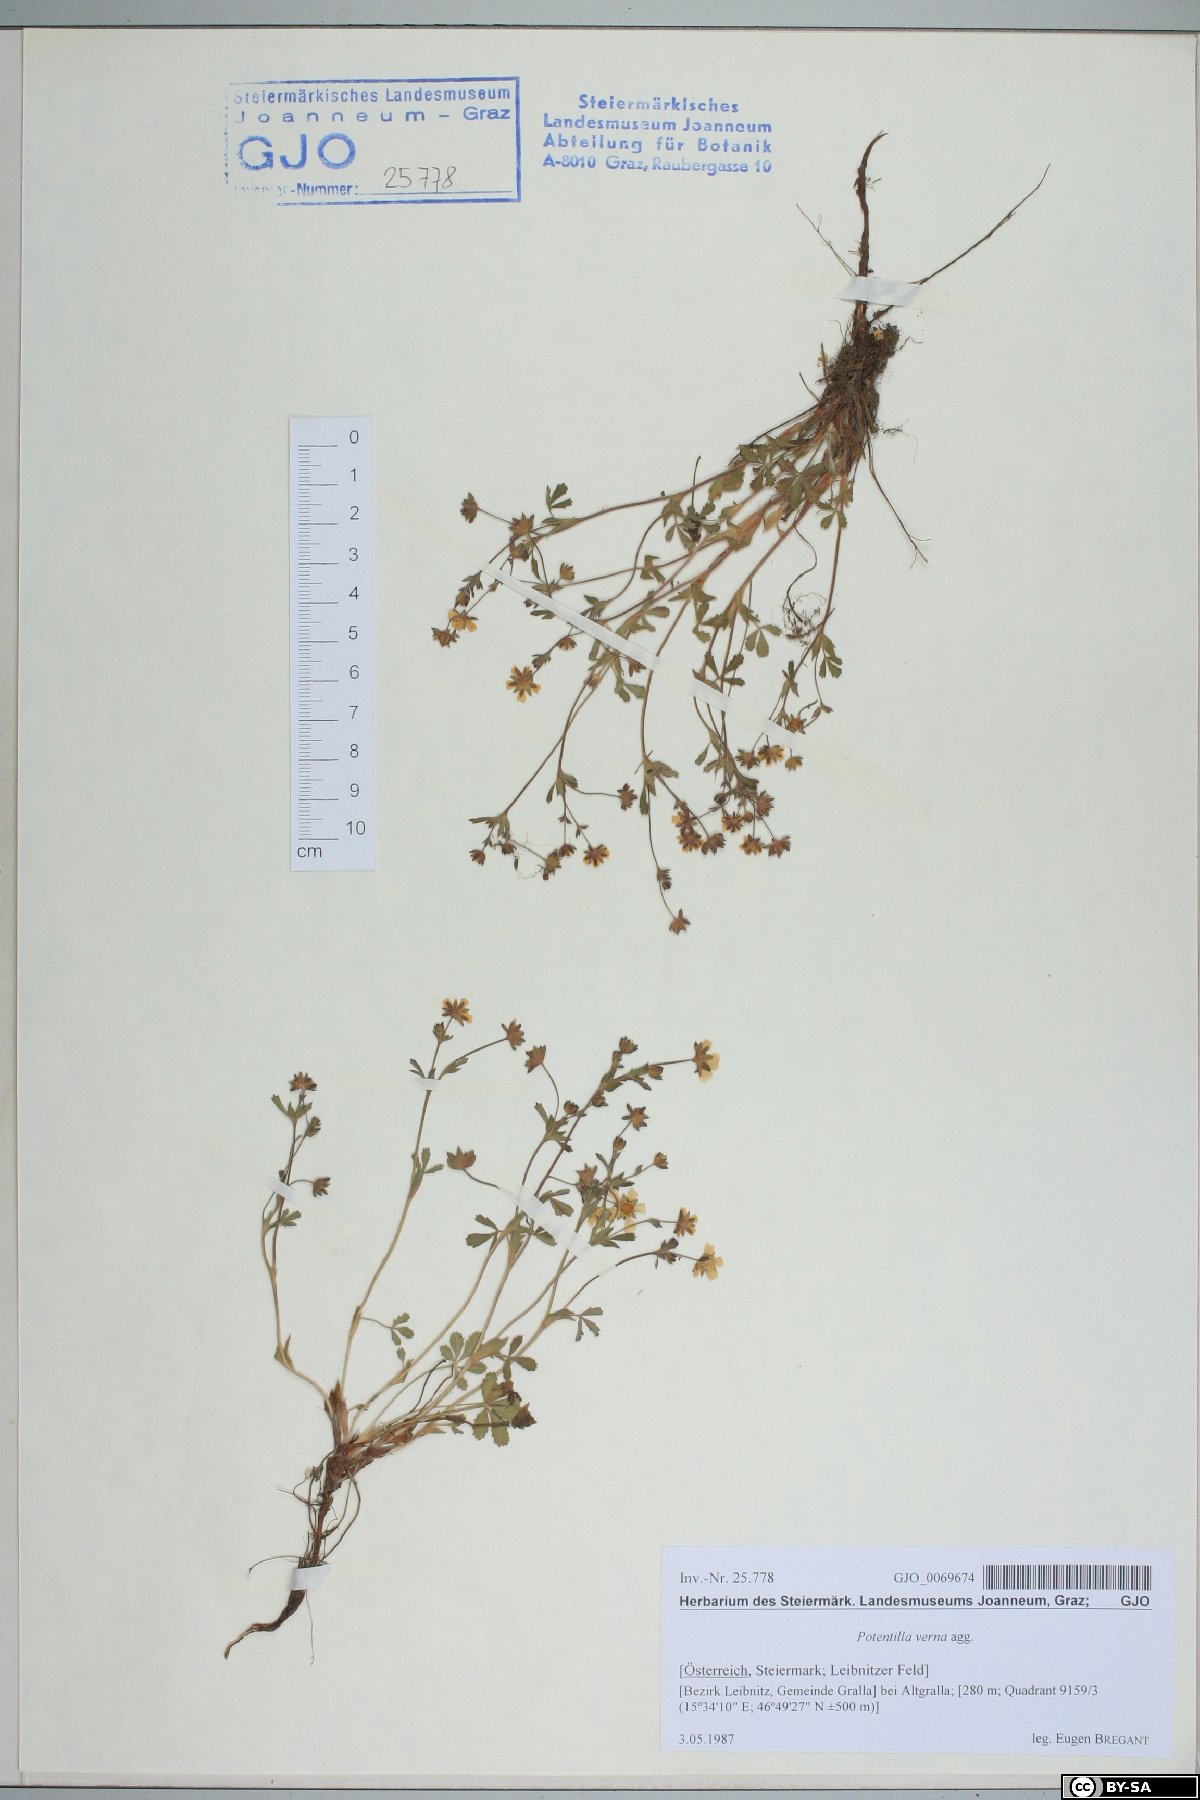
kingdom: Plantae
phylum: Tracheophyta
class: Magnoliopsida
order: Rosales
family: Rosaceae
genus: Potentilla
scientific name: Potentilla verna
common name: Spring cinquefoil
